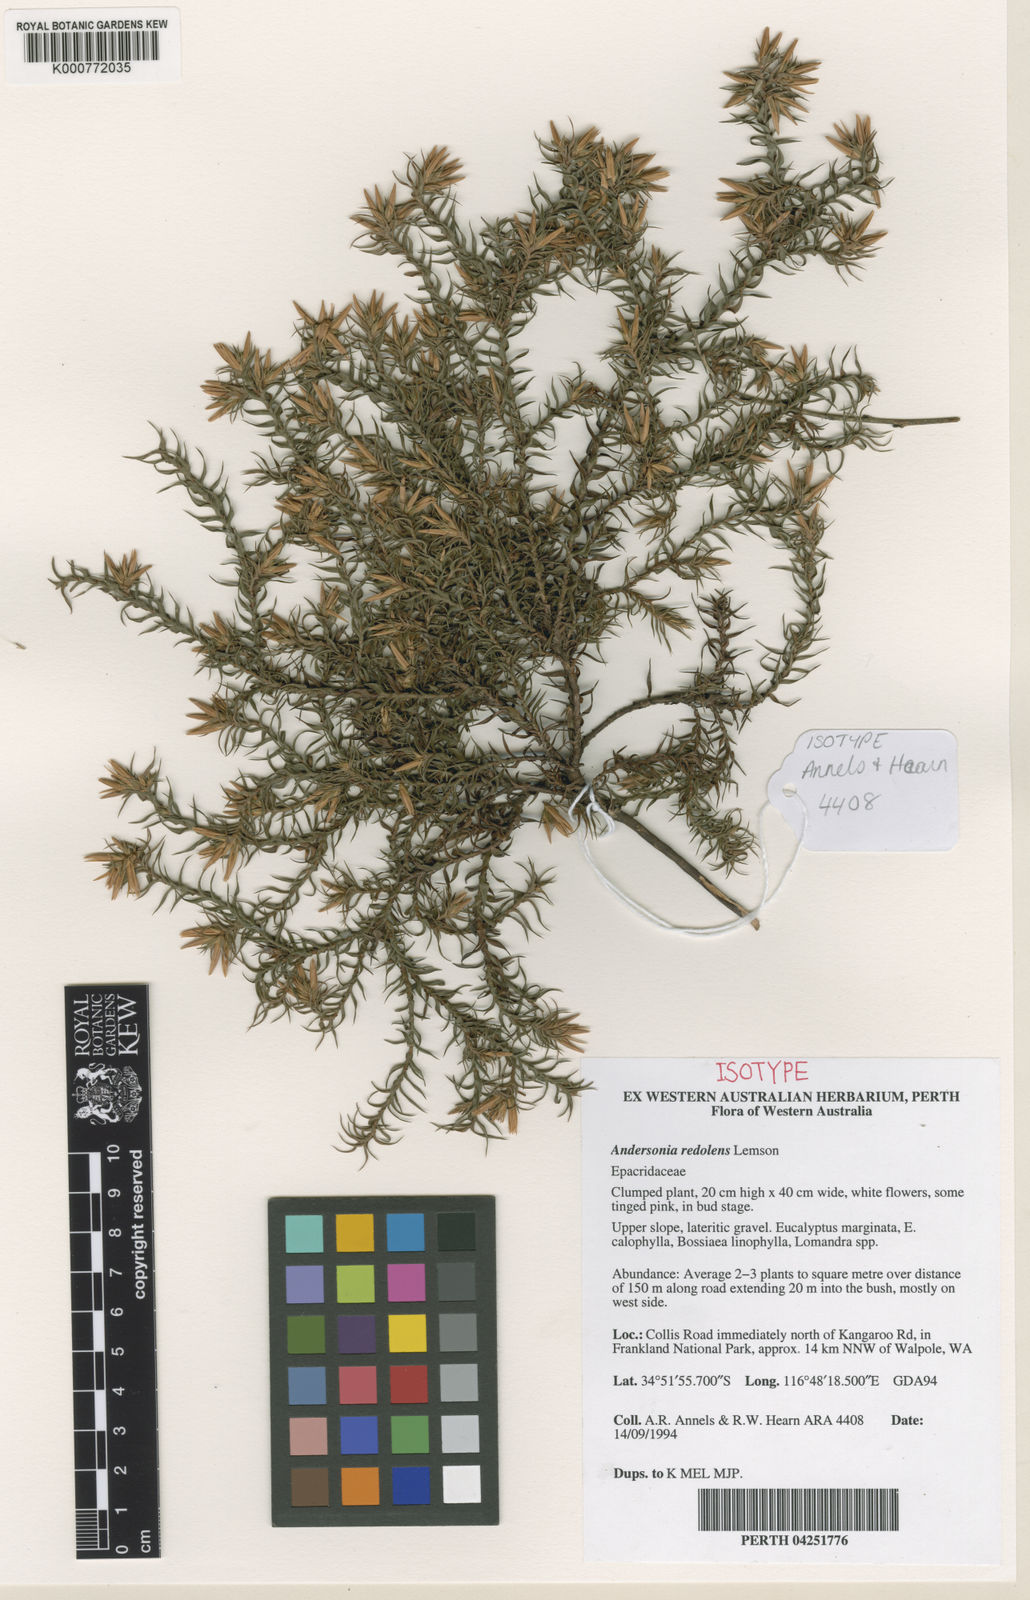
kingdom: Plantae
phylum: Tracheophyta
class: Magnoliopsida
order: Ericales
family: Ericaceae
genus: Andersonia
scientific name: Andersonia redolens
